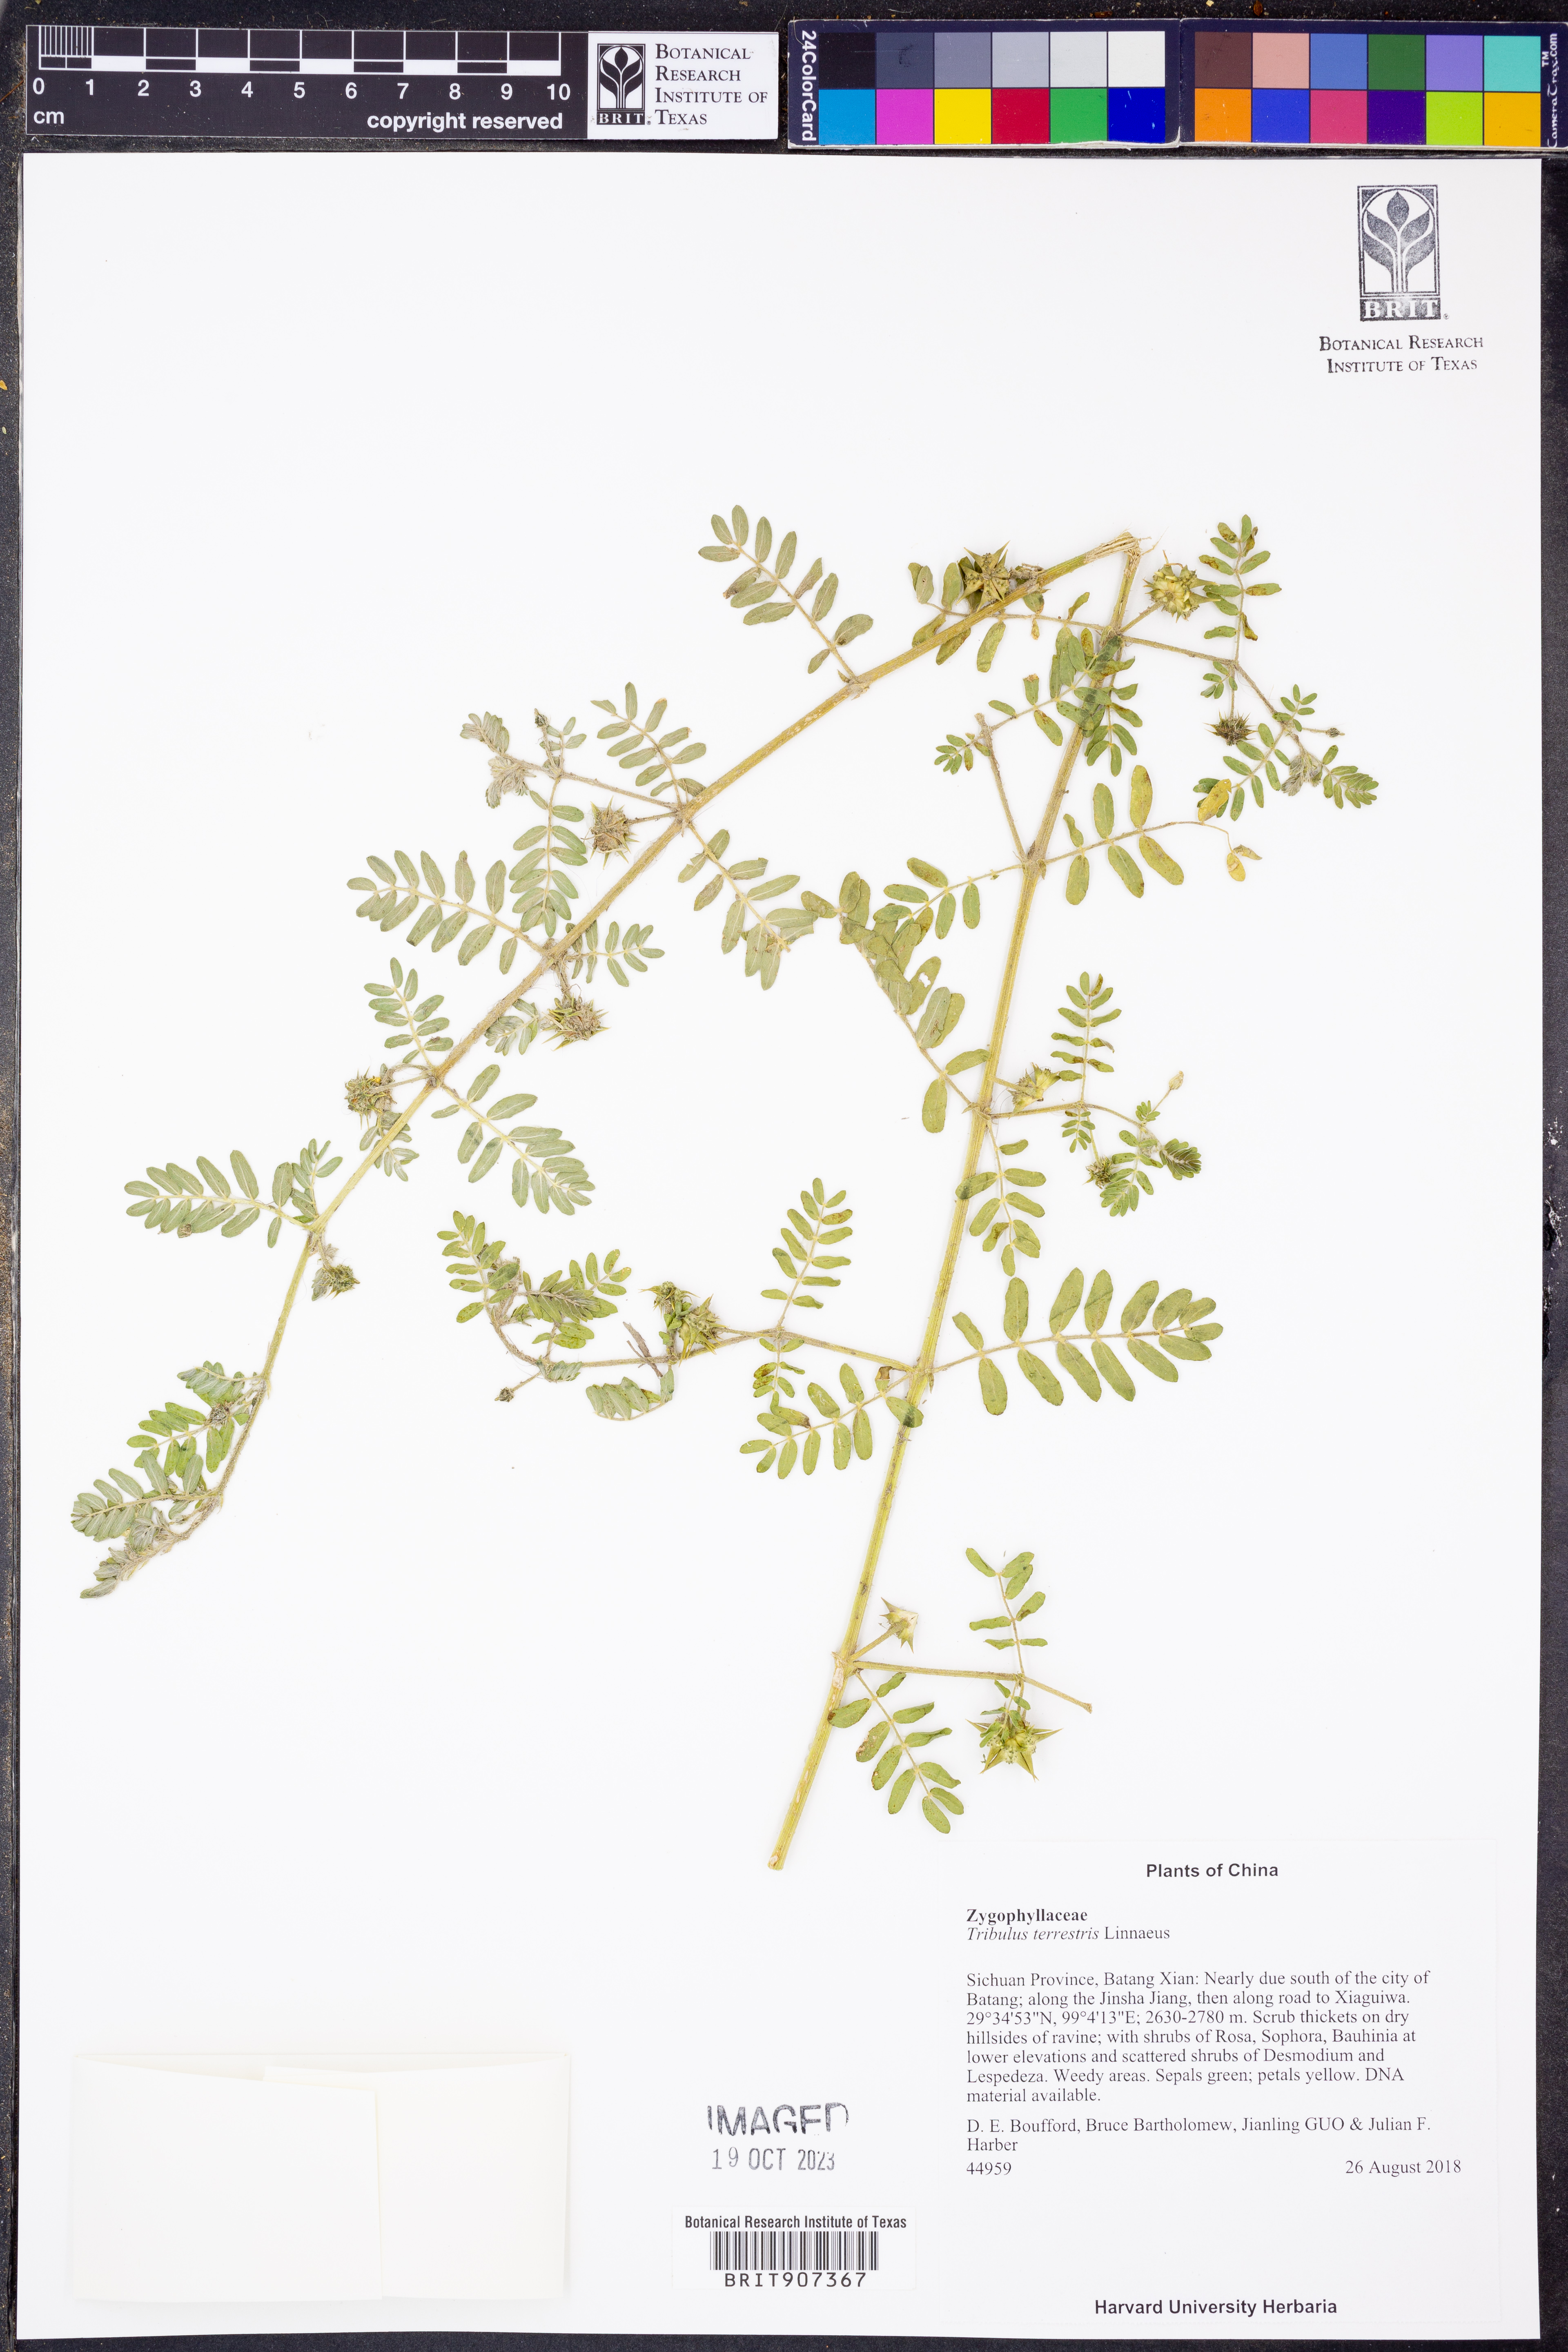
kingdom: Plantae
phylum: Tracheophyta
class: Magnoliopsida
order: Zygophyllales
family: Zygophyllaceae
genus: Tribulus
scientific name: Tribulus terrestris
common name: Puncturevine
